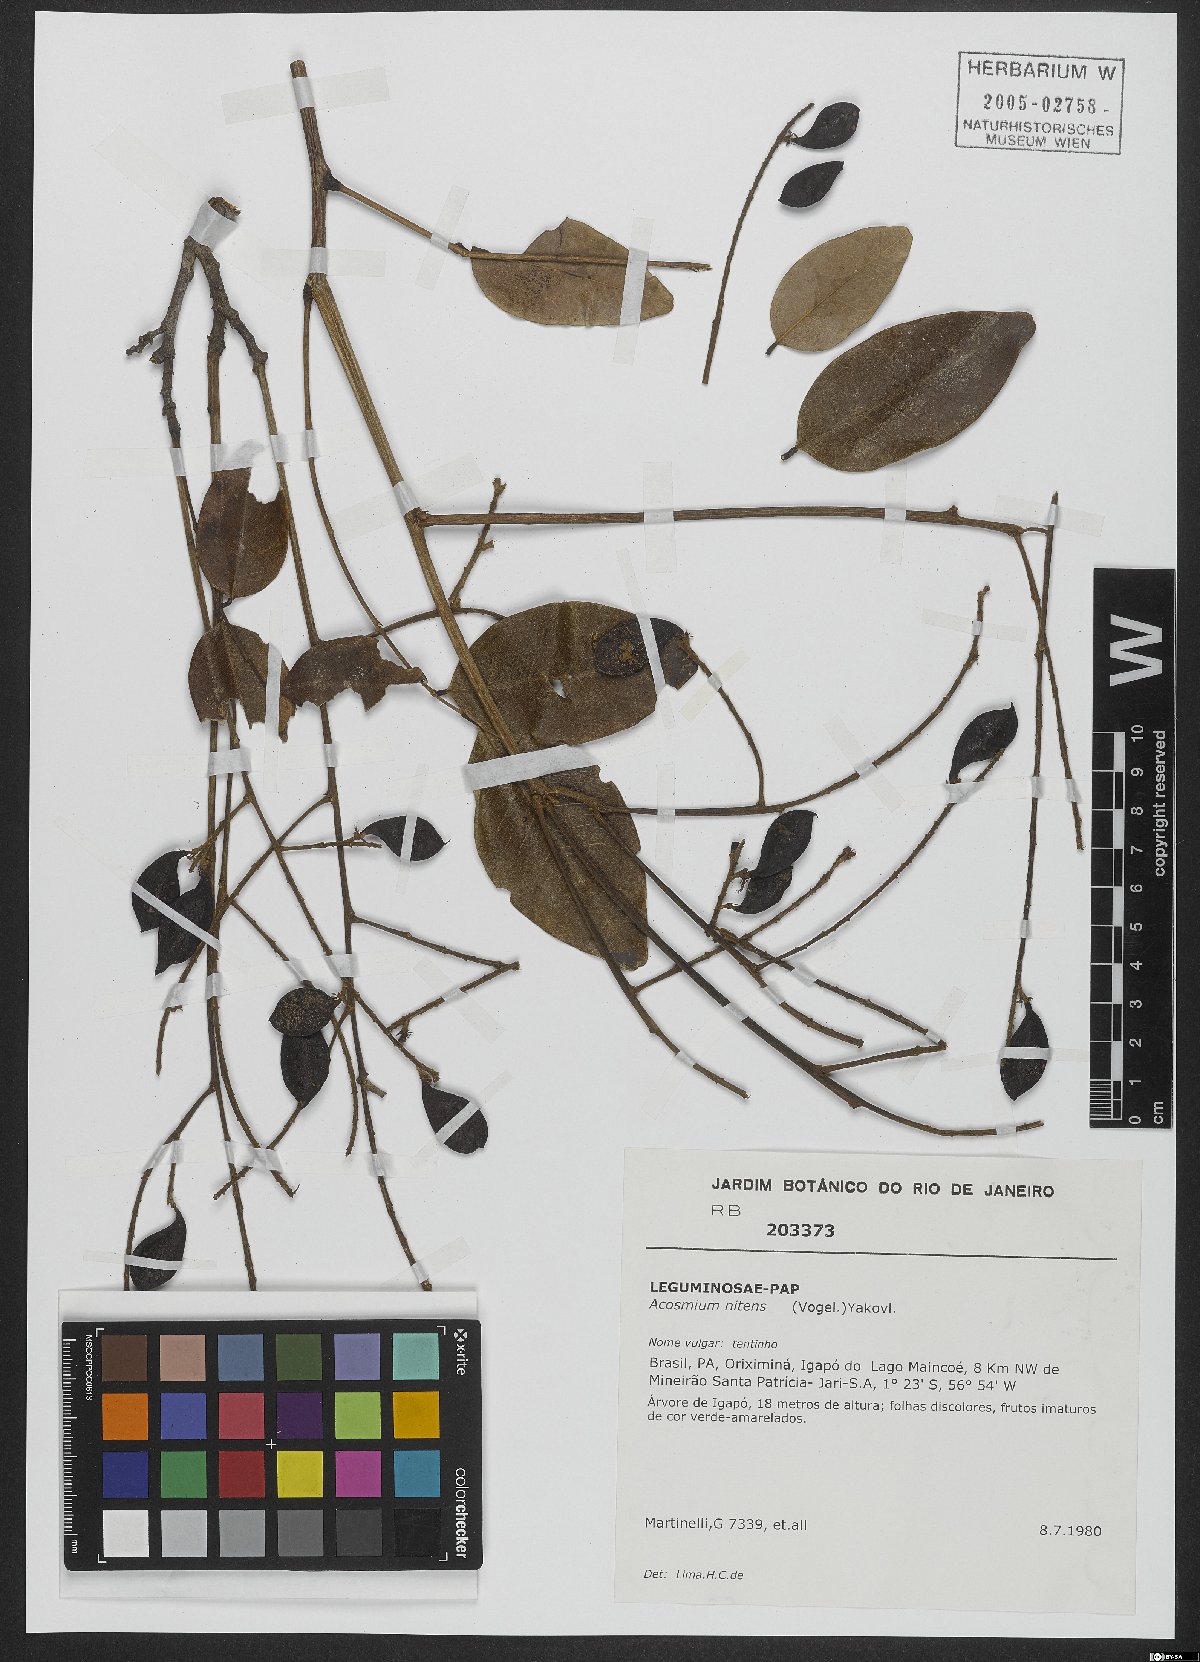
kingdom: Plantae
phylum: Tracheophyta
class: Magnoliopsida
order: Fabales
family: Fabaceae
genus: Leptolobium
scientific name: Leptolobium nitens
